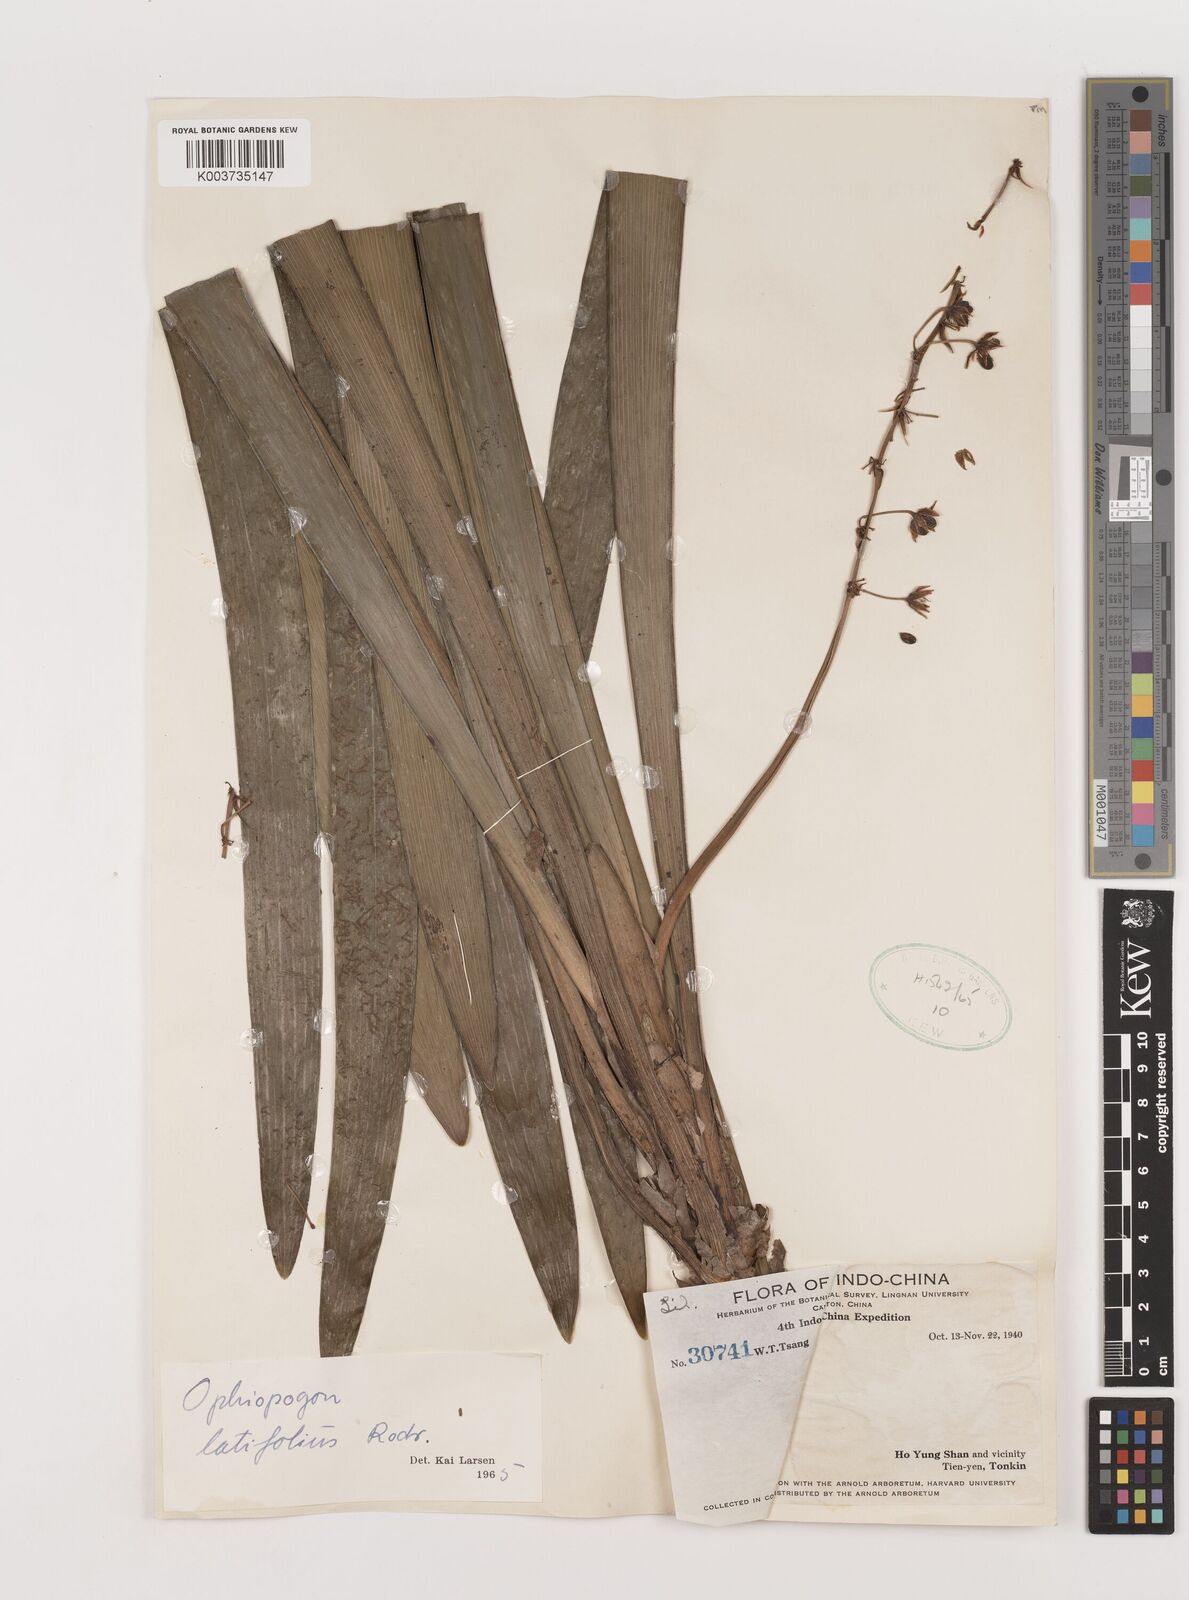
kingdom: Plantae
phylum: Tracheophyta
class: Liliopsida
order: Asparagales
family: Asparagaceae
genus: Ophiopogon
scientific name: Ophiopogon latifolius
